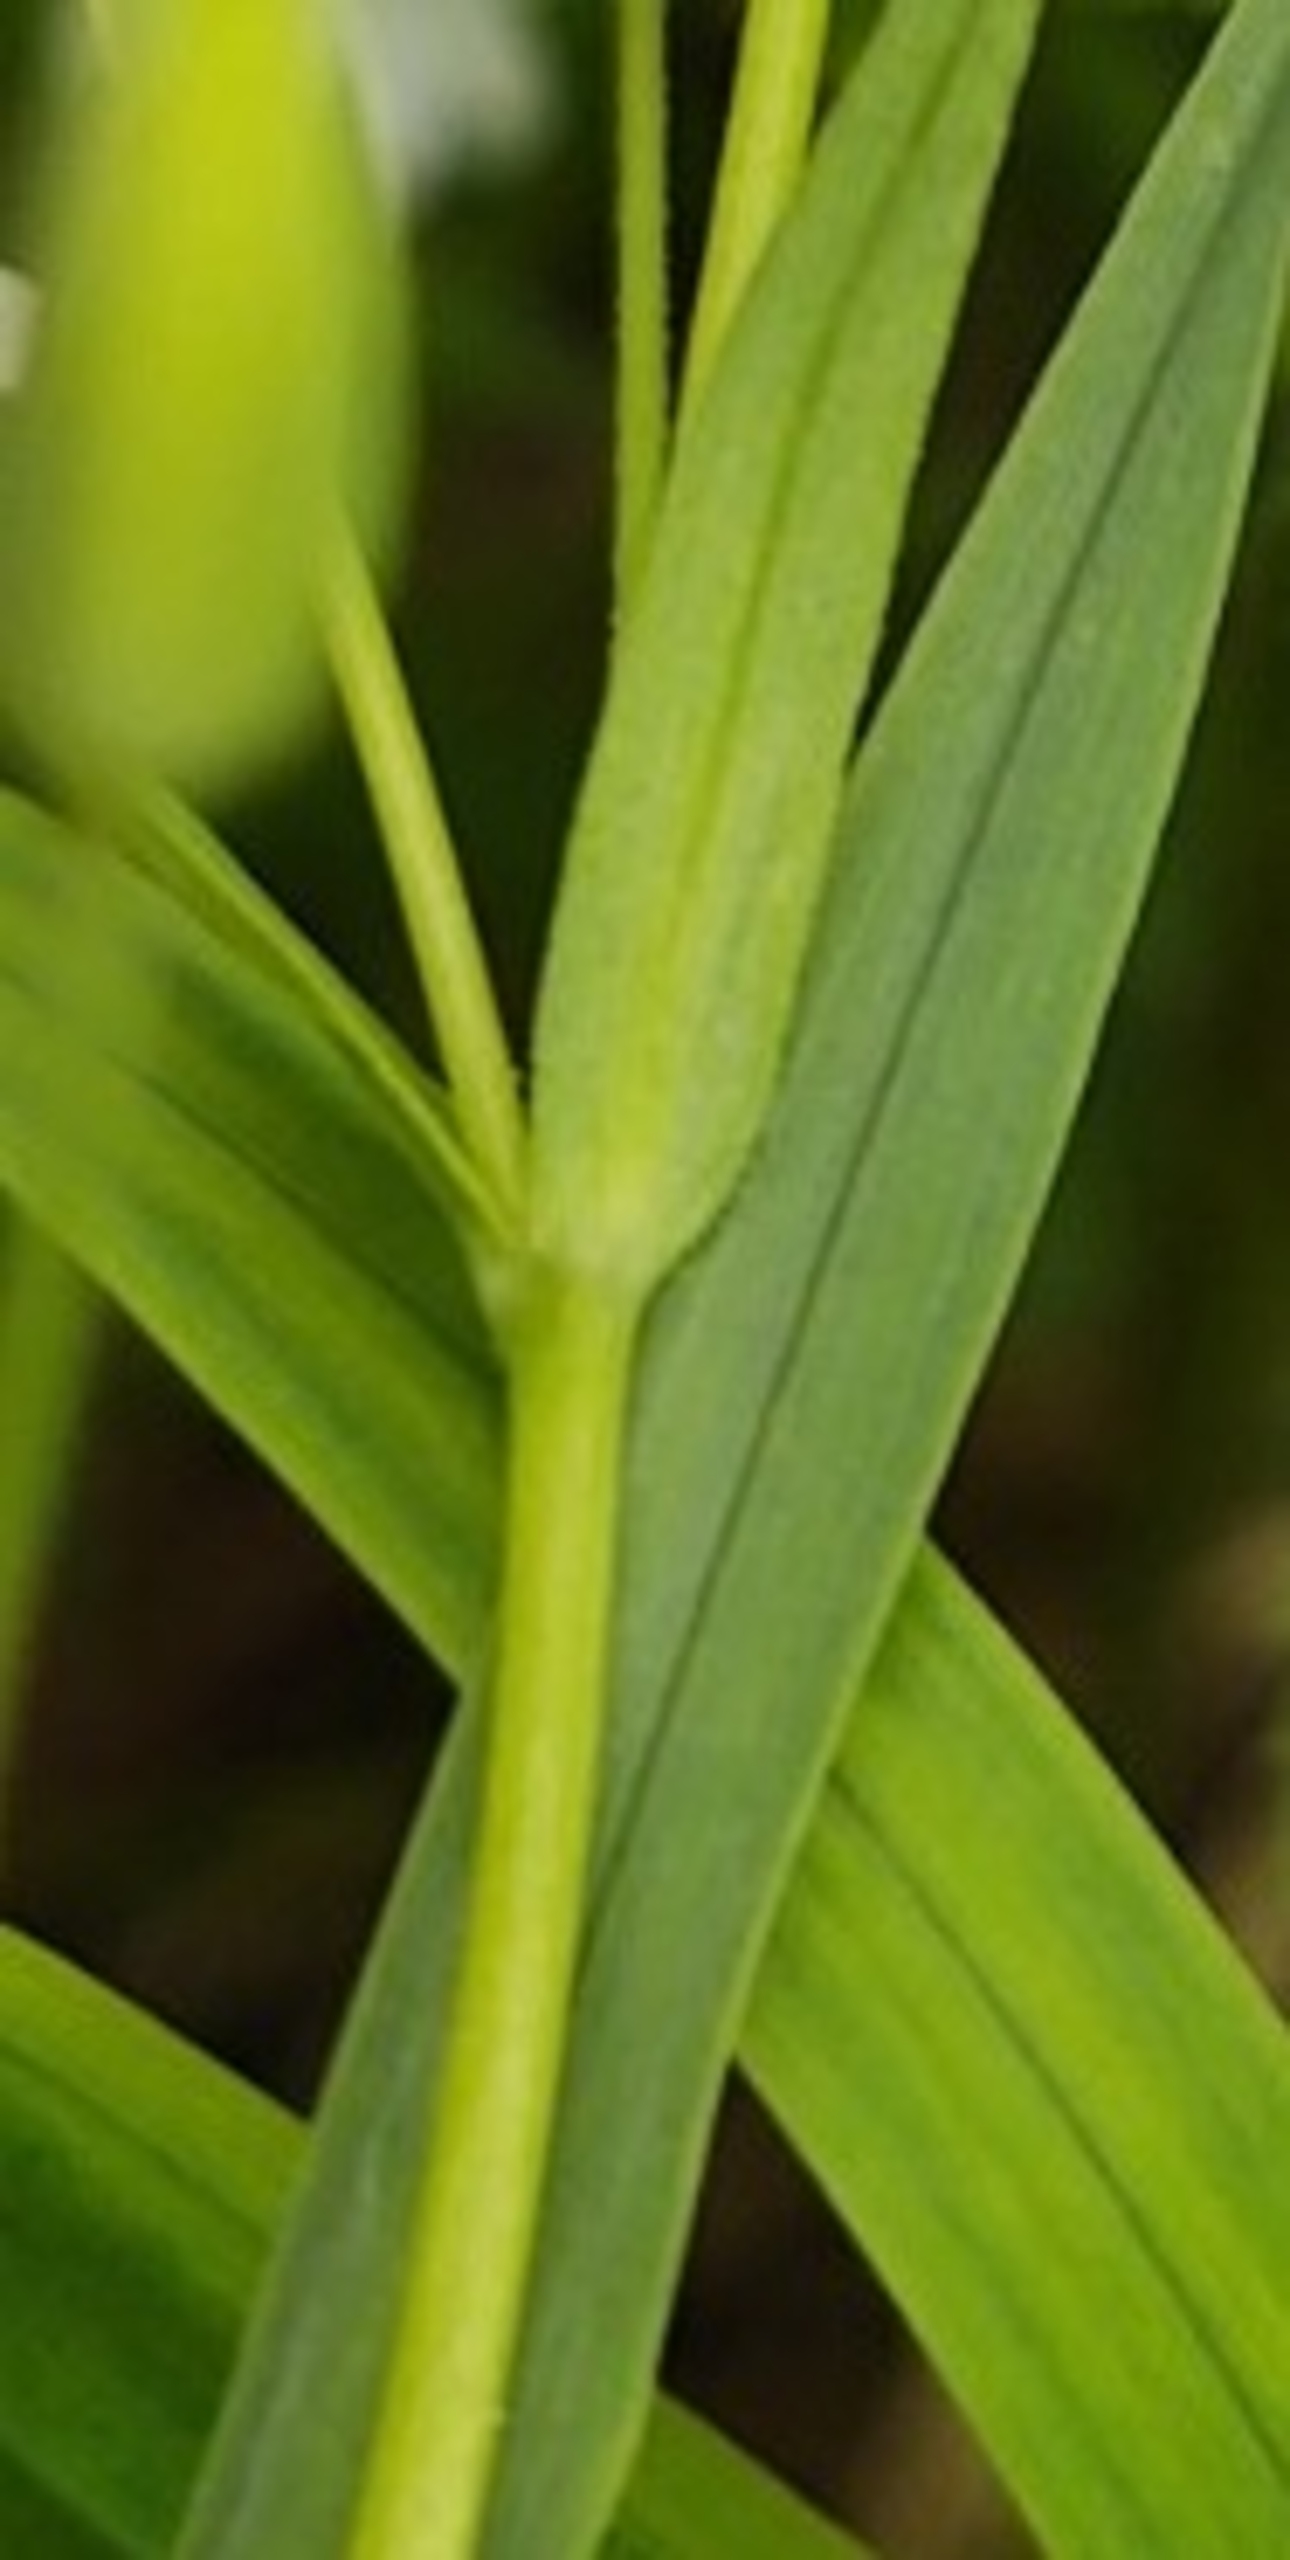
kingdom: Plantae
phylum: Tracheophyta
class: Magnoliopsida
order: Caryophyllales
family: Caryophyllaceae
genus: Rabelera
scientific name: Rabelera holostea
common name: Stor fladstjerne
